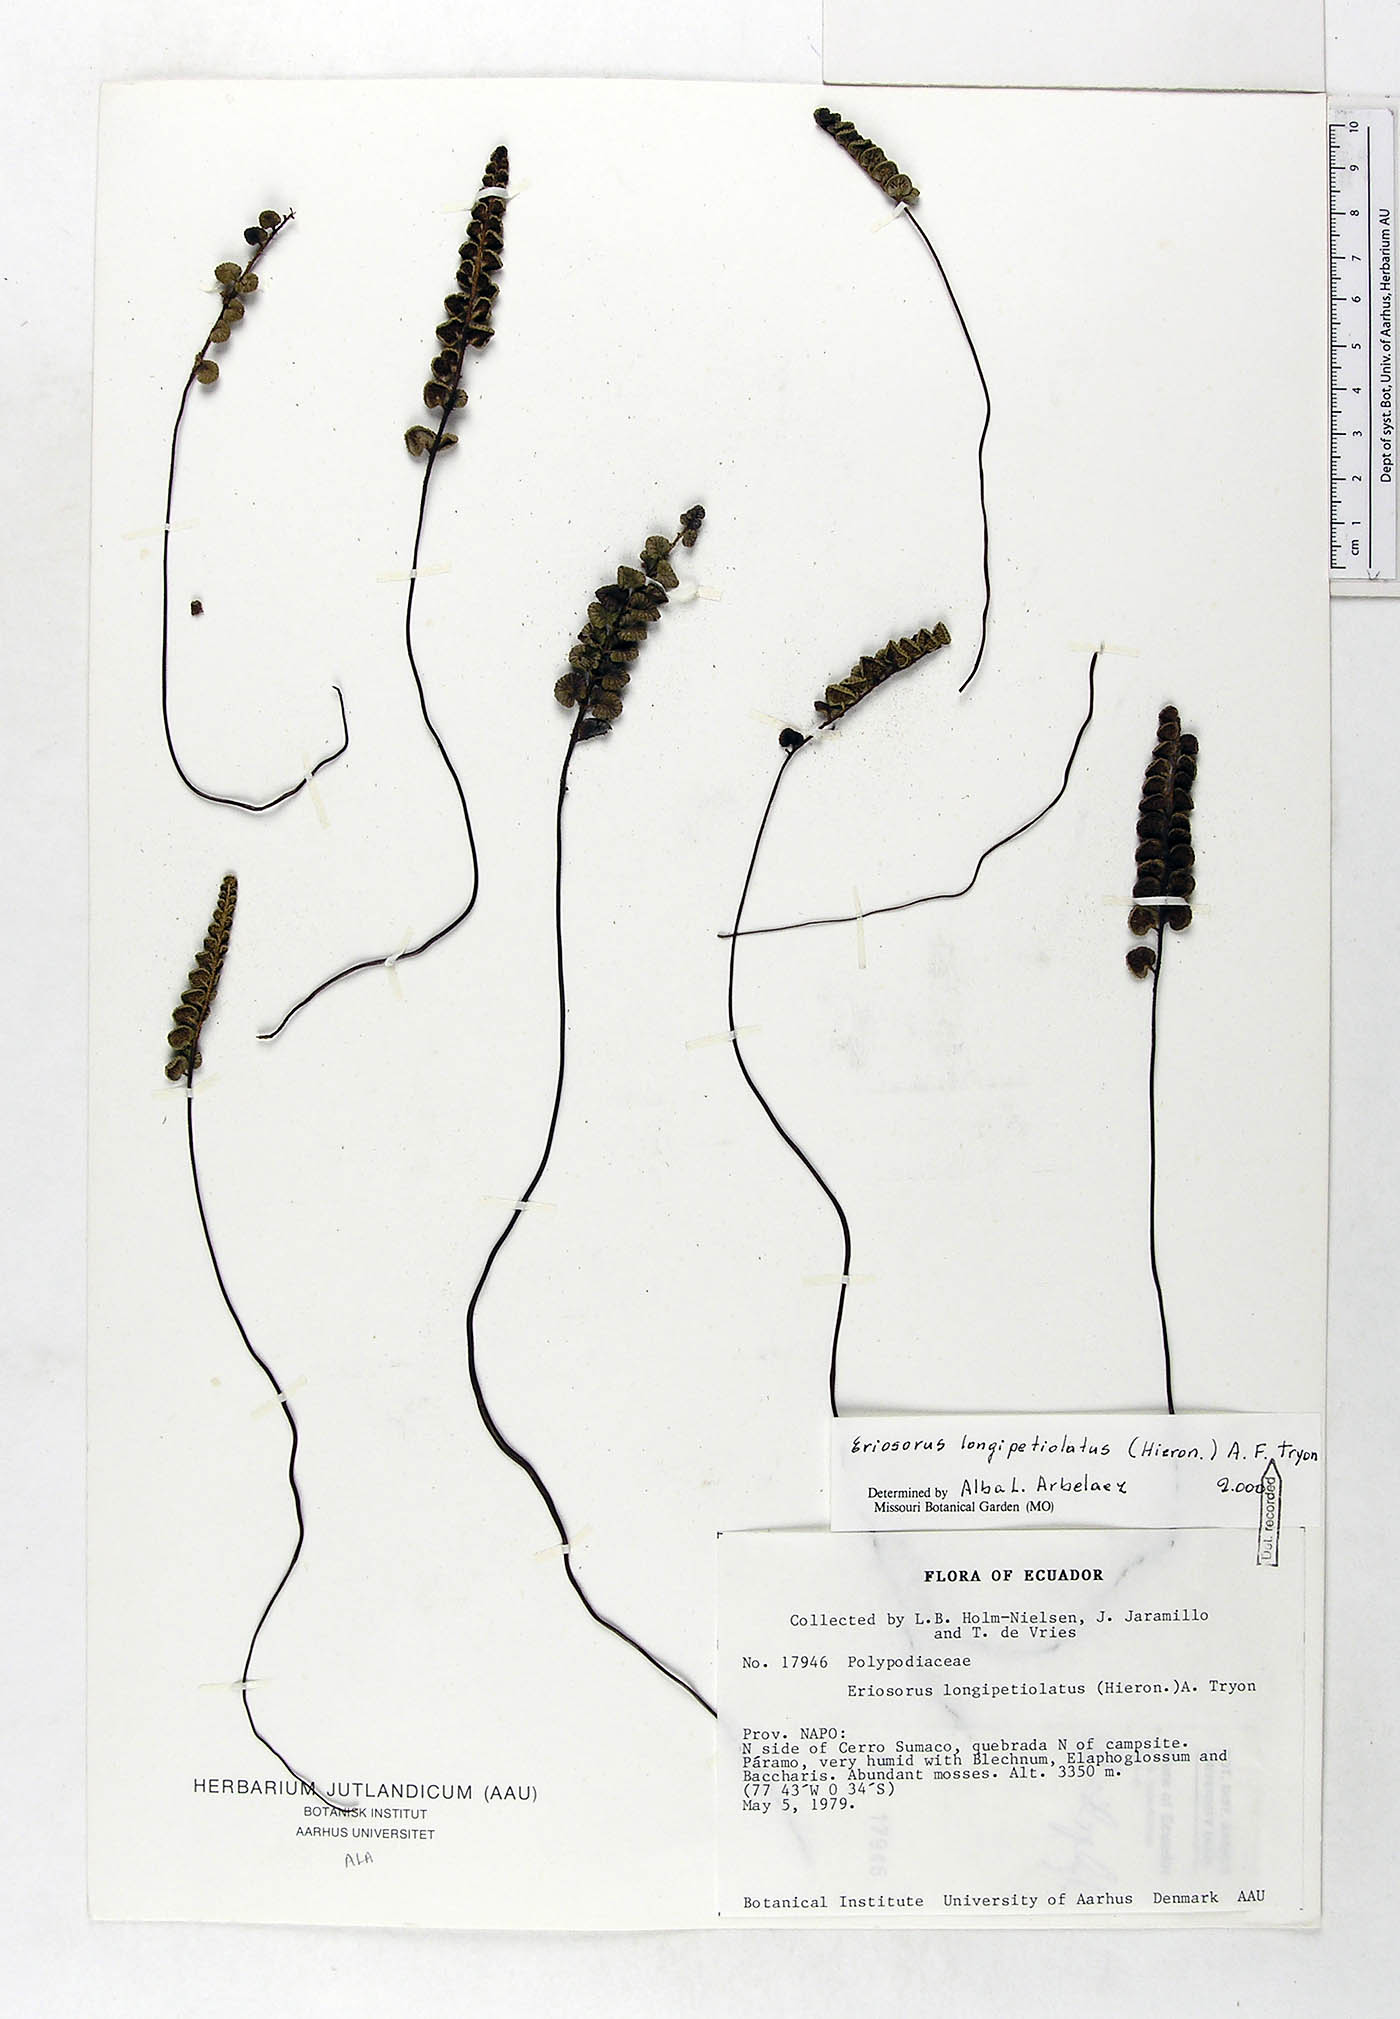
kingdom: Plantae
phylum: Tracheophyta
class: Polypodiopsida
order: Polypodiales
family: Pteridaceae
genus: Jamesonia
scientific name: Jamesonia longipetiolata
